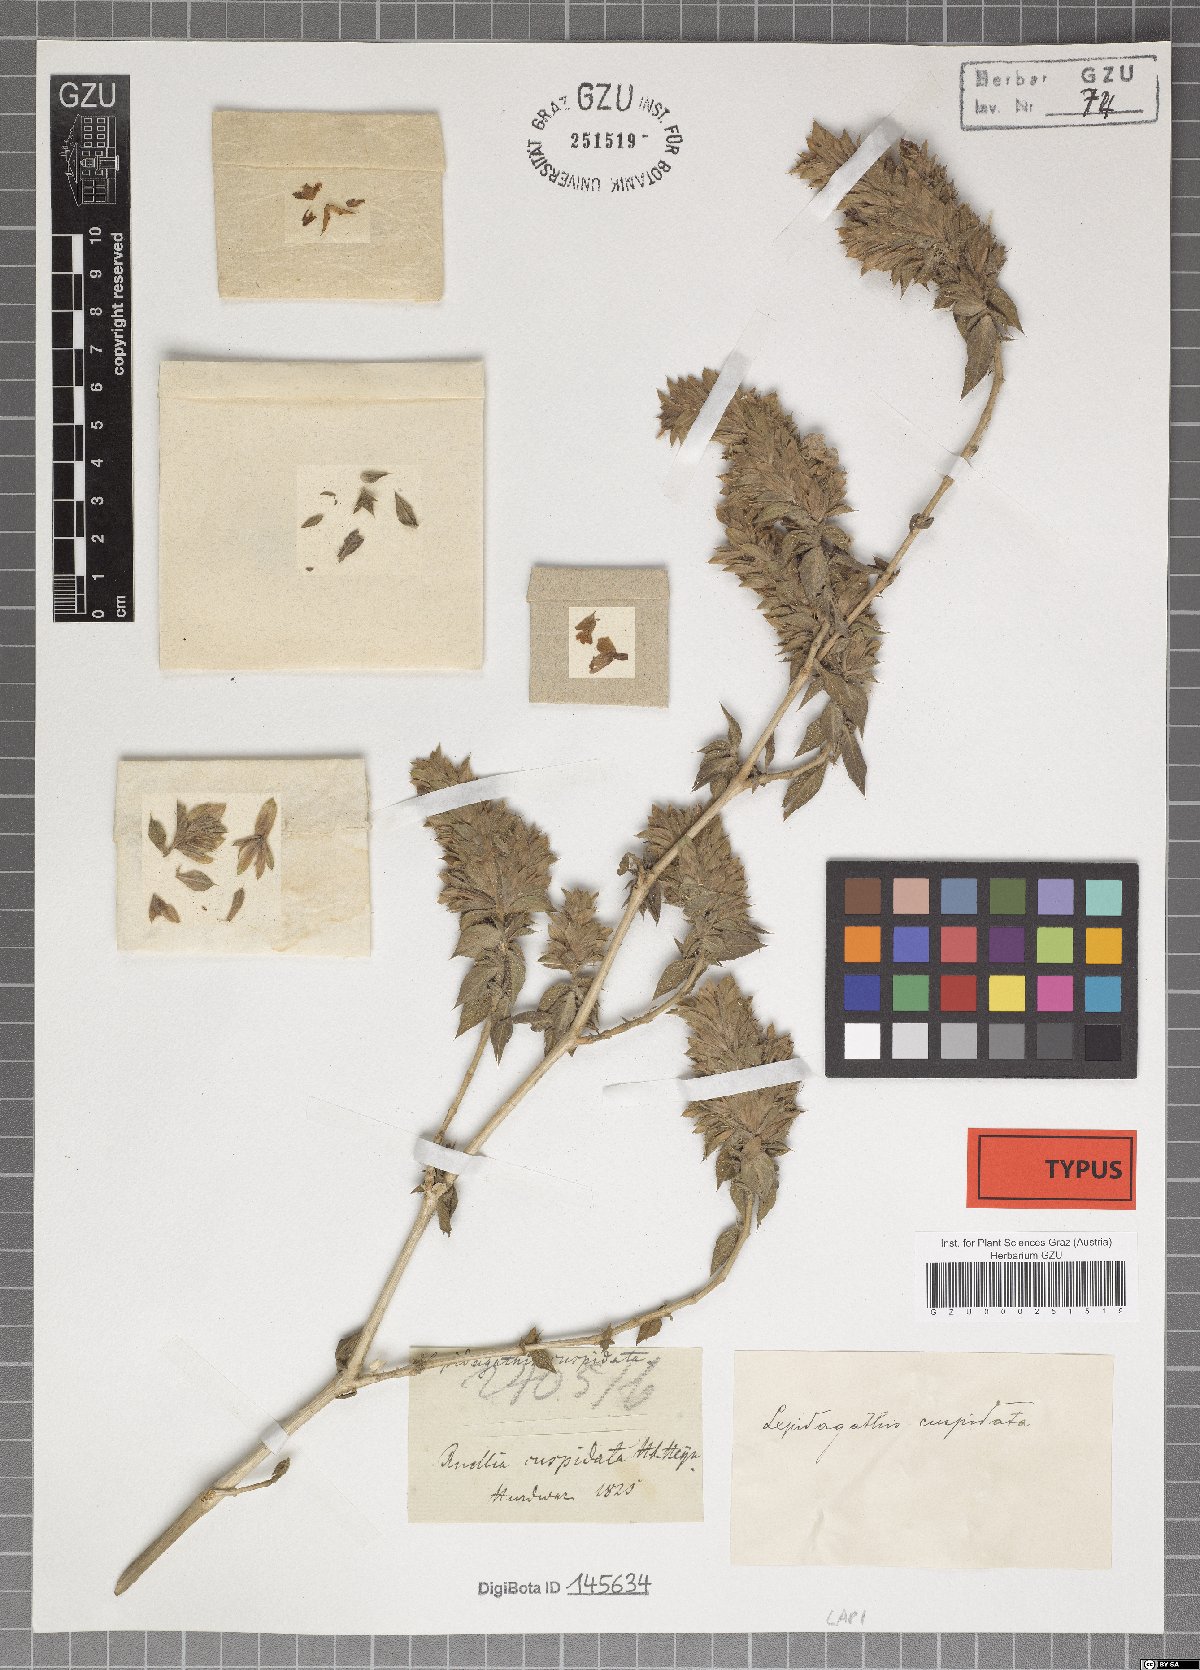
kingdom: Plantae
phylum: Tracheophyta
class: Magnoliopsida
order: Lamiales
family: Acanthaceae
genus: Lepidagathis
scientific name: Lepidagathis cuspidata
